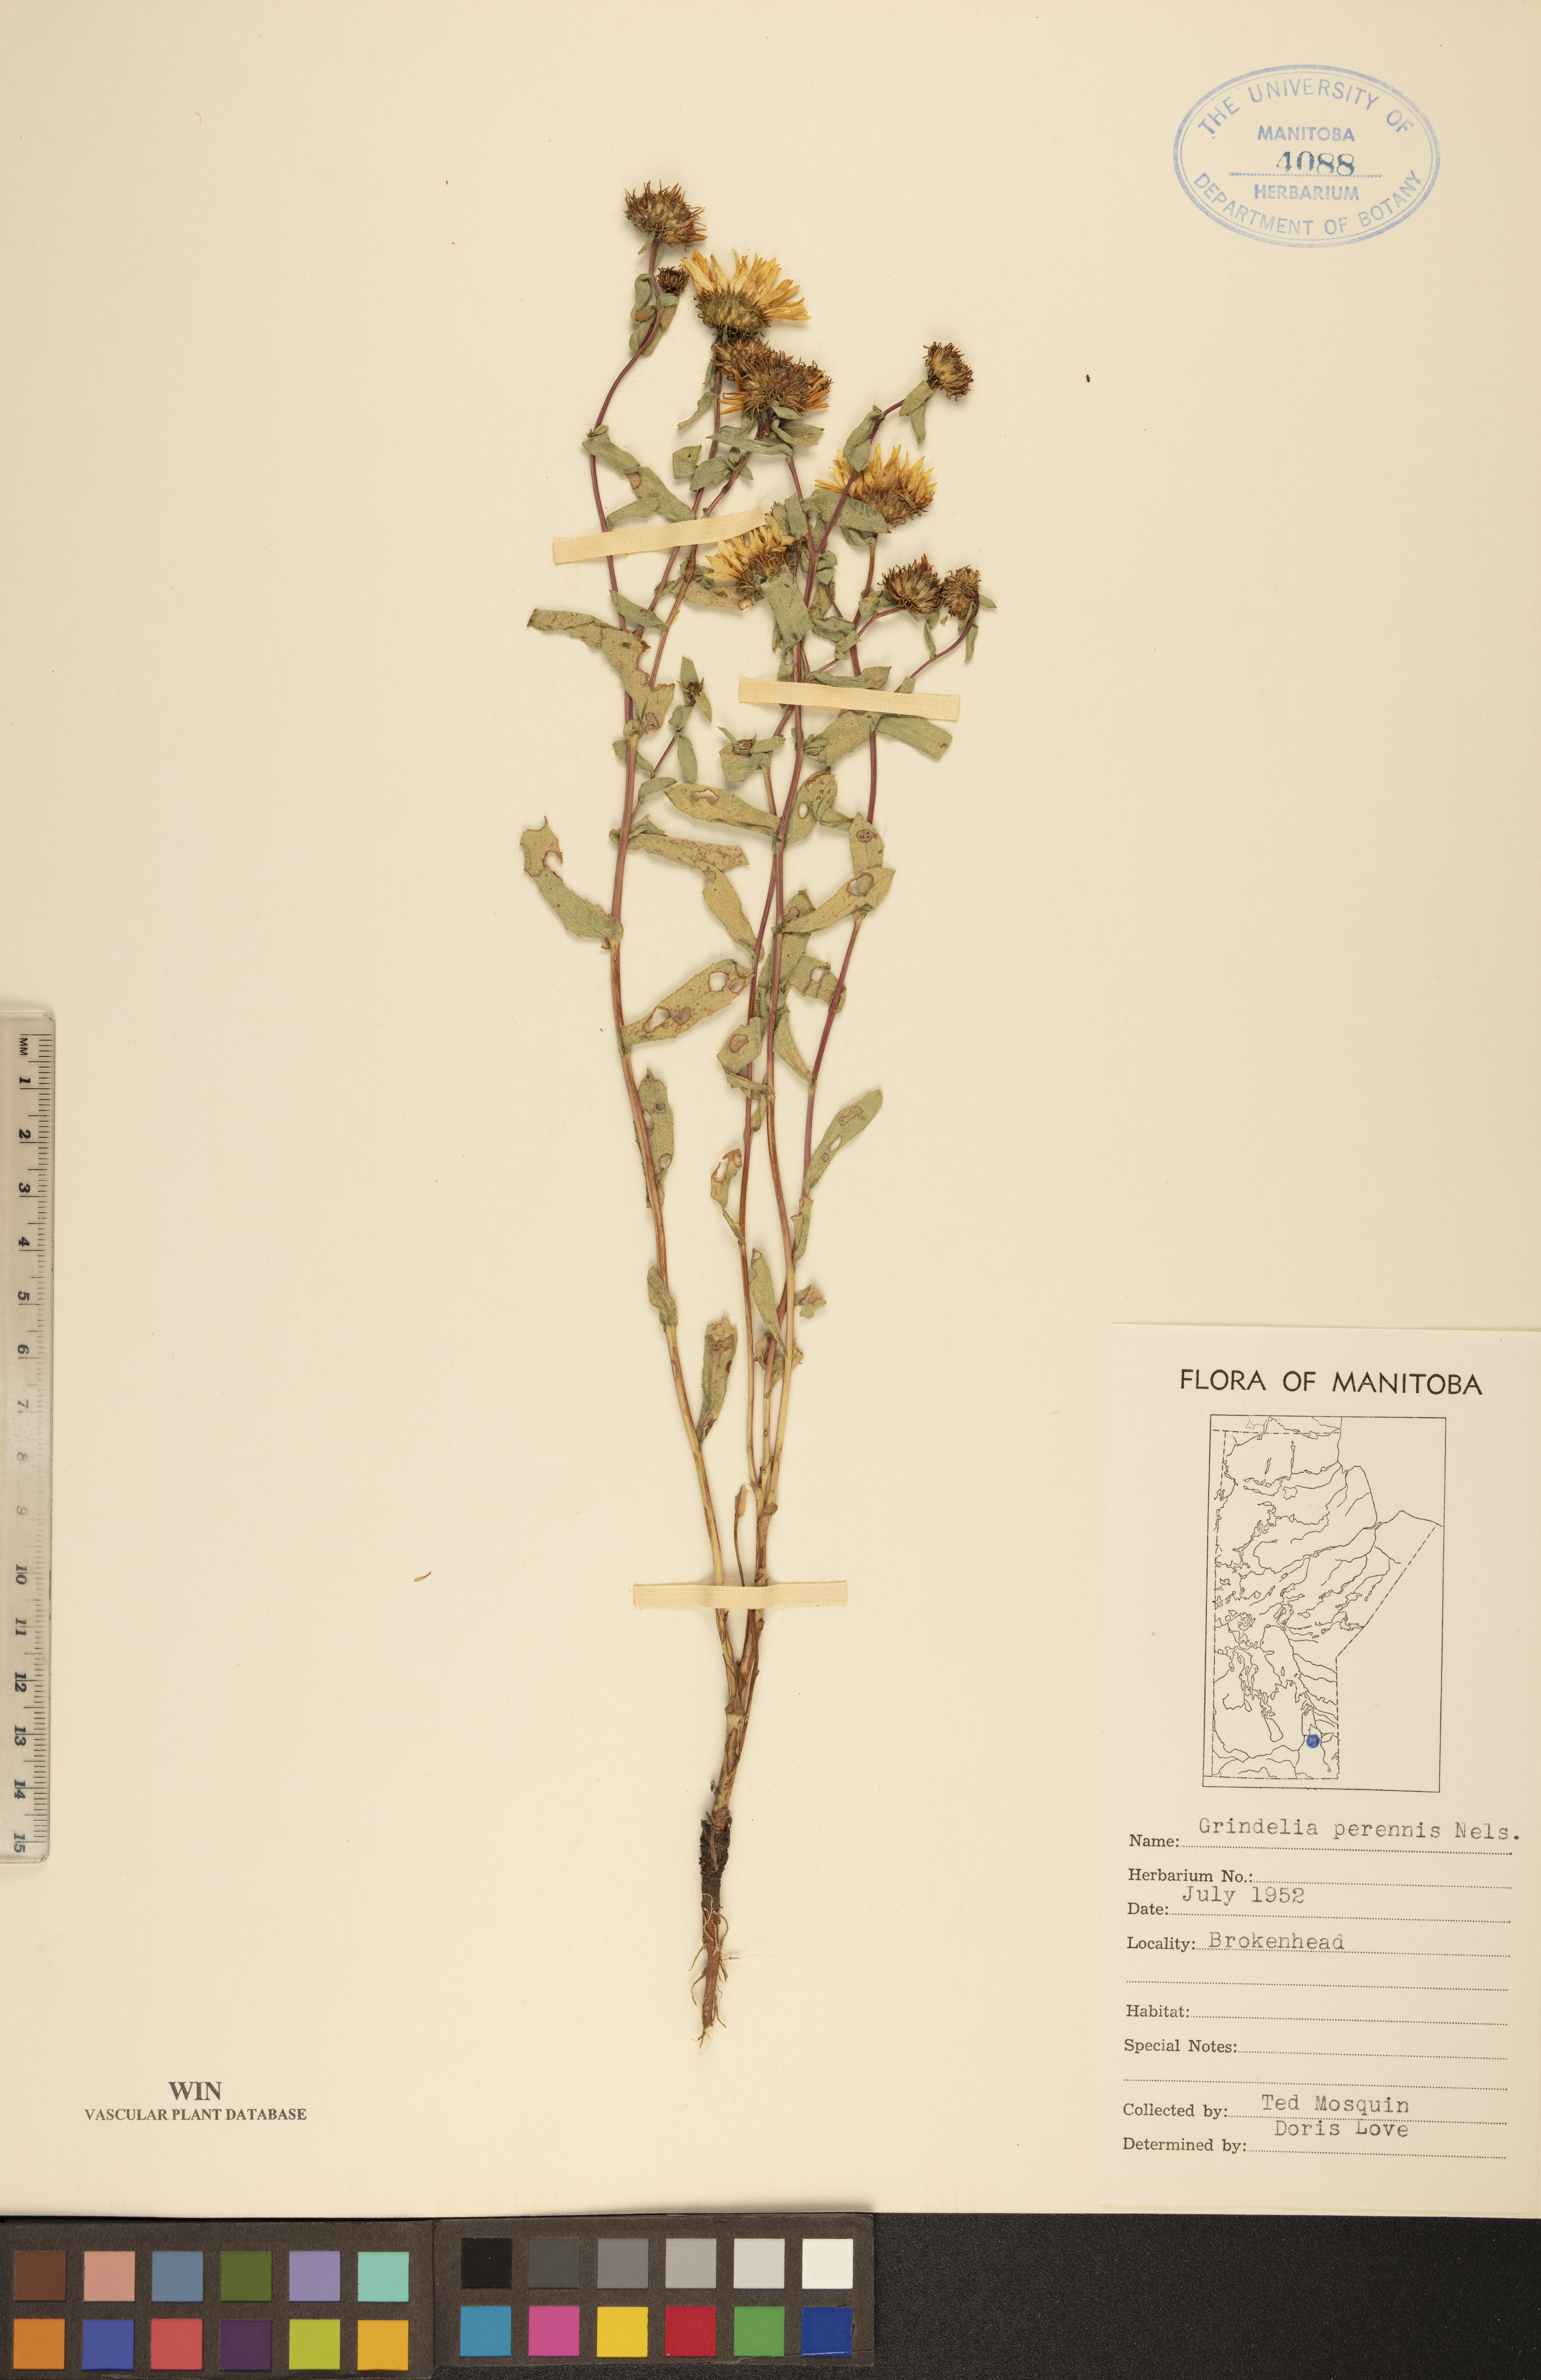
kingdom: Plantae
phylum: Tracheophyta
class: Magnoliopsida
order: Asterales
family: Asteraceae
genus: Grindelia
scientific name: Grindelia hirsutula
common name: Hairy gumweed
